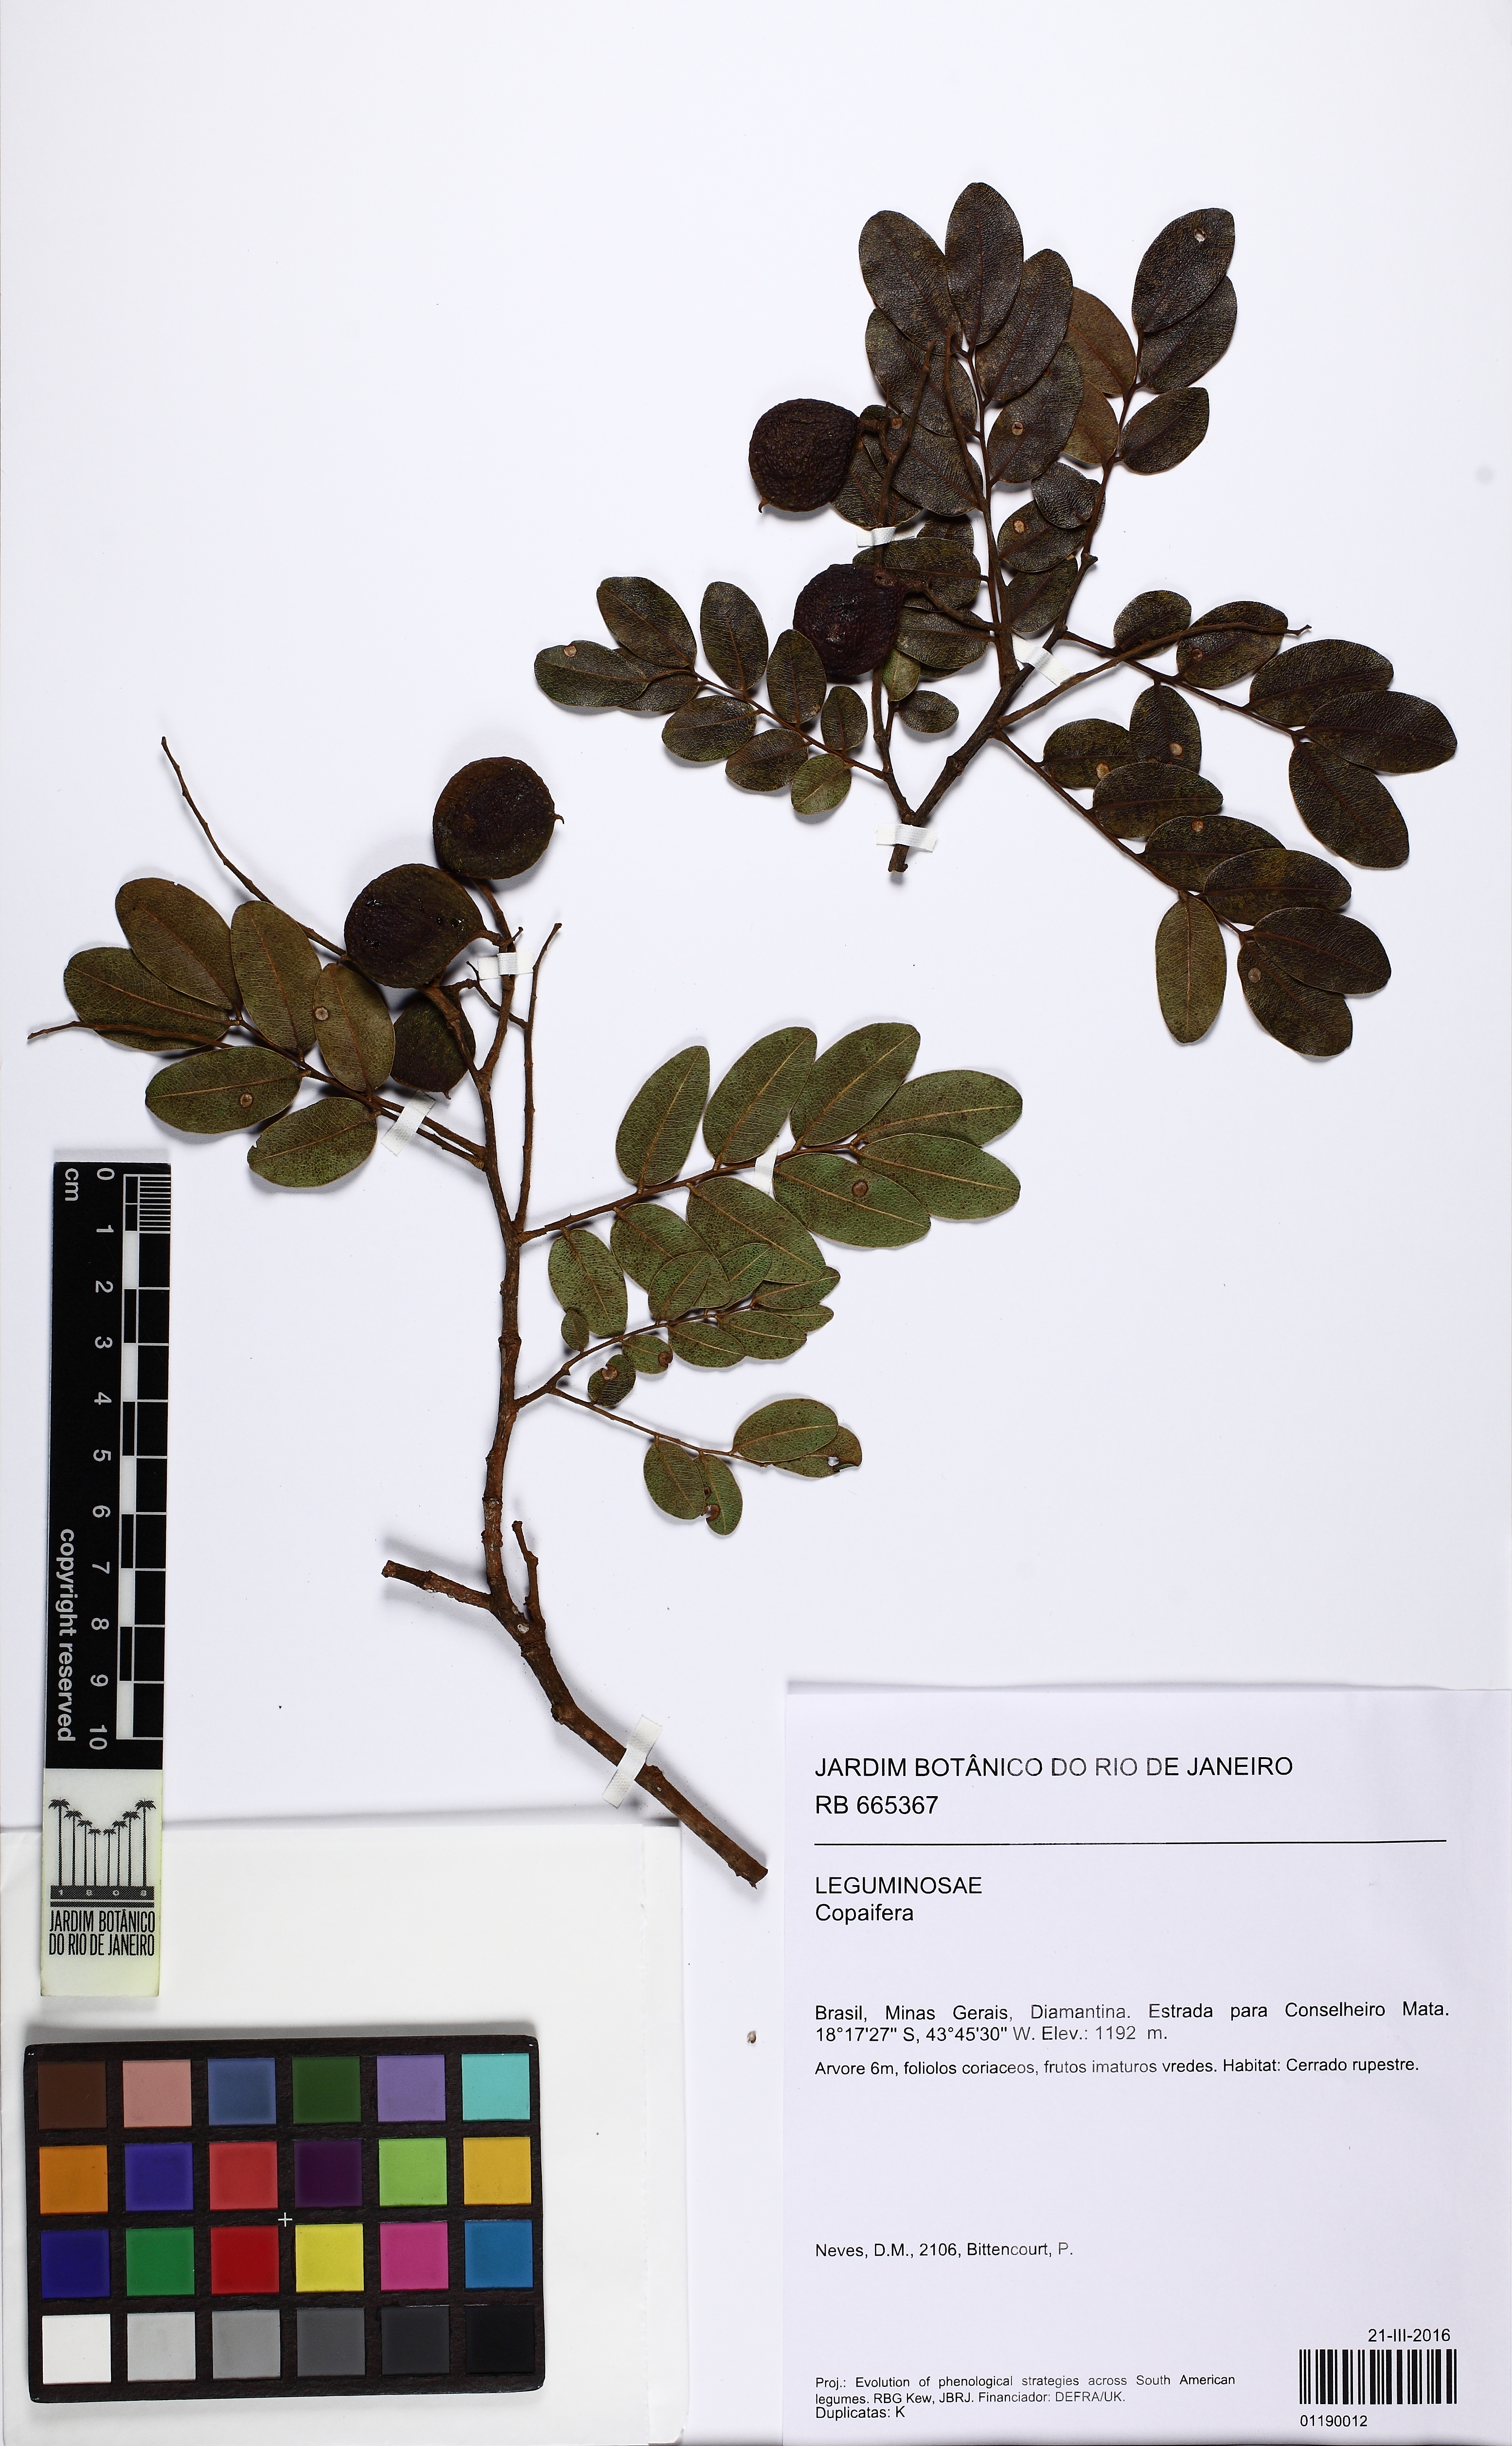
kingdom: Plantae
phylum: Tracheophyta
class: Magnoliopsida
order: Fabales
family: Fabaceae
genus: Copaifera
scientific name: Copaifera
